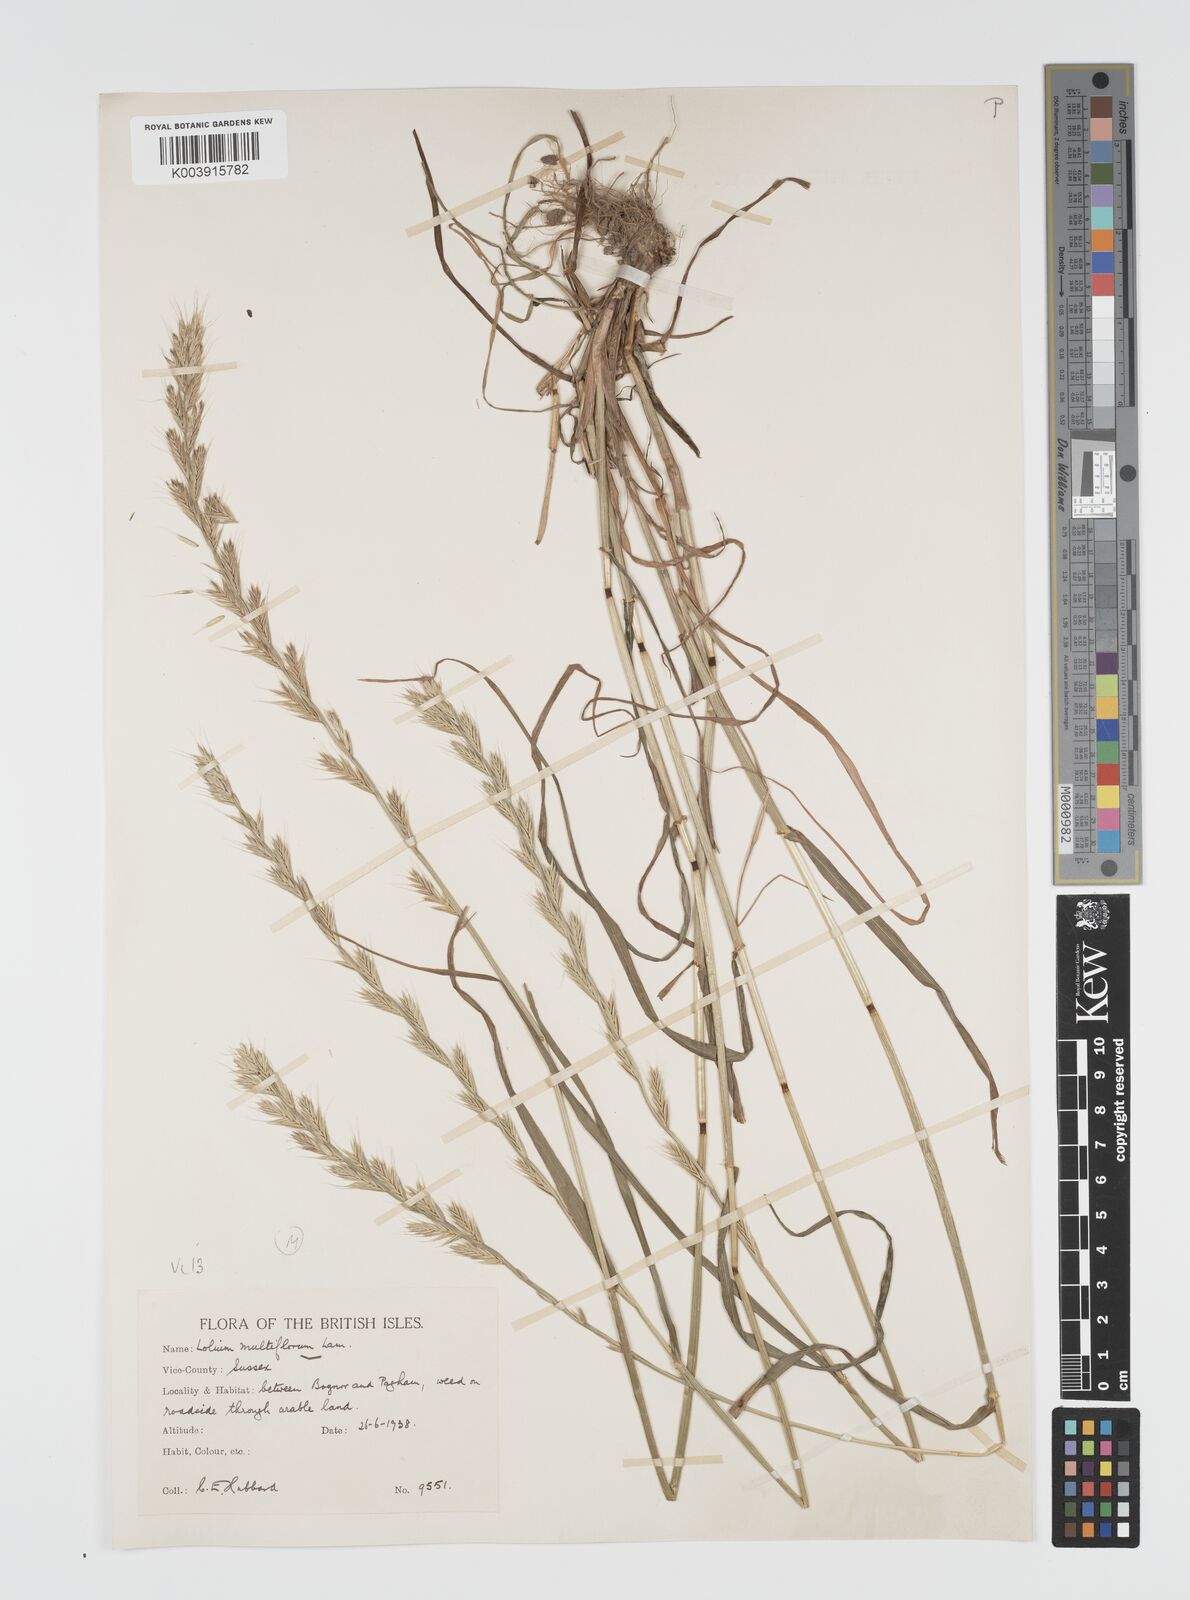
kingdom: Plantae
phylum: Tracheophyta
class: Liliopsida
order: Poales
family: Poaceae
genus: Lolium
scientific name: Lolium multiflorum
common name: Annual ryegrass
